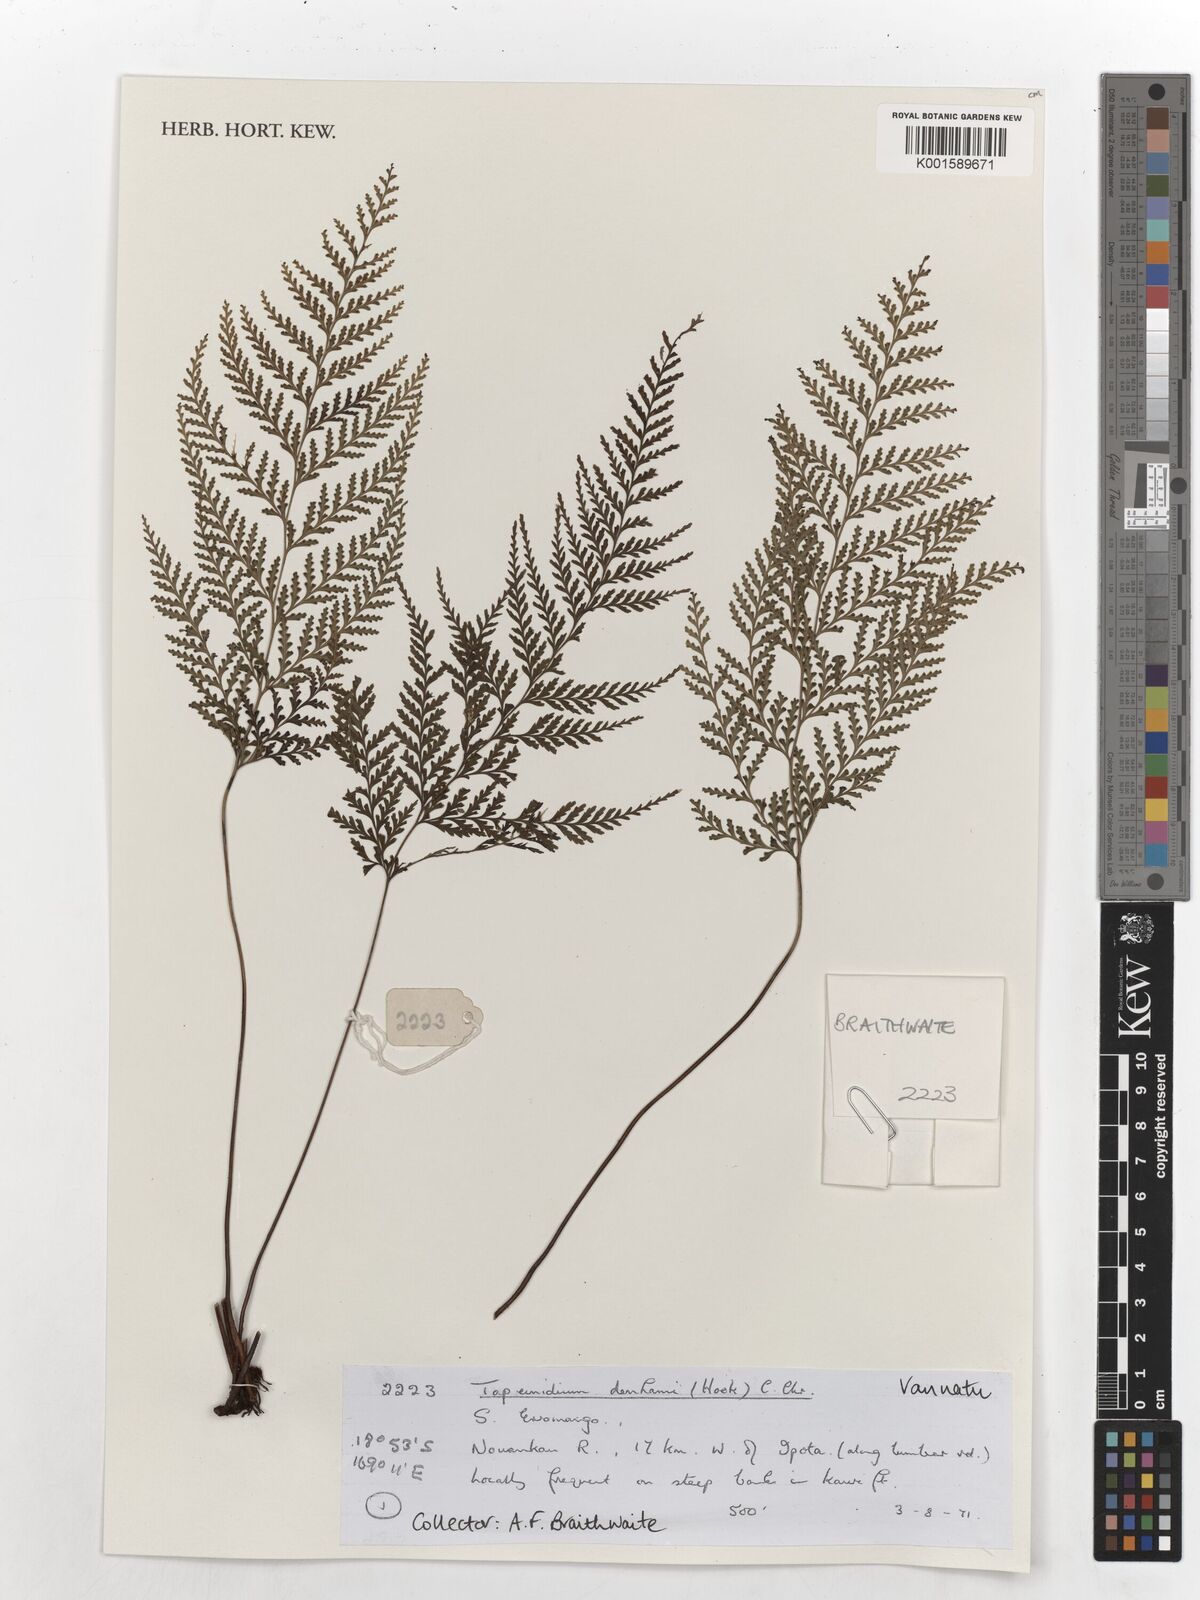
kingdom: Plantae
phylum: Tracheophyta
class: Polypodiopsida
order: Polypodiales
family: Lindsaeaceae
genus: Tapeinidium
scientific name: Tapeinidium denhamii
